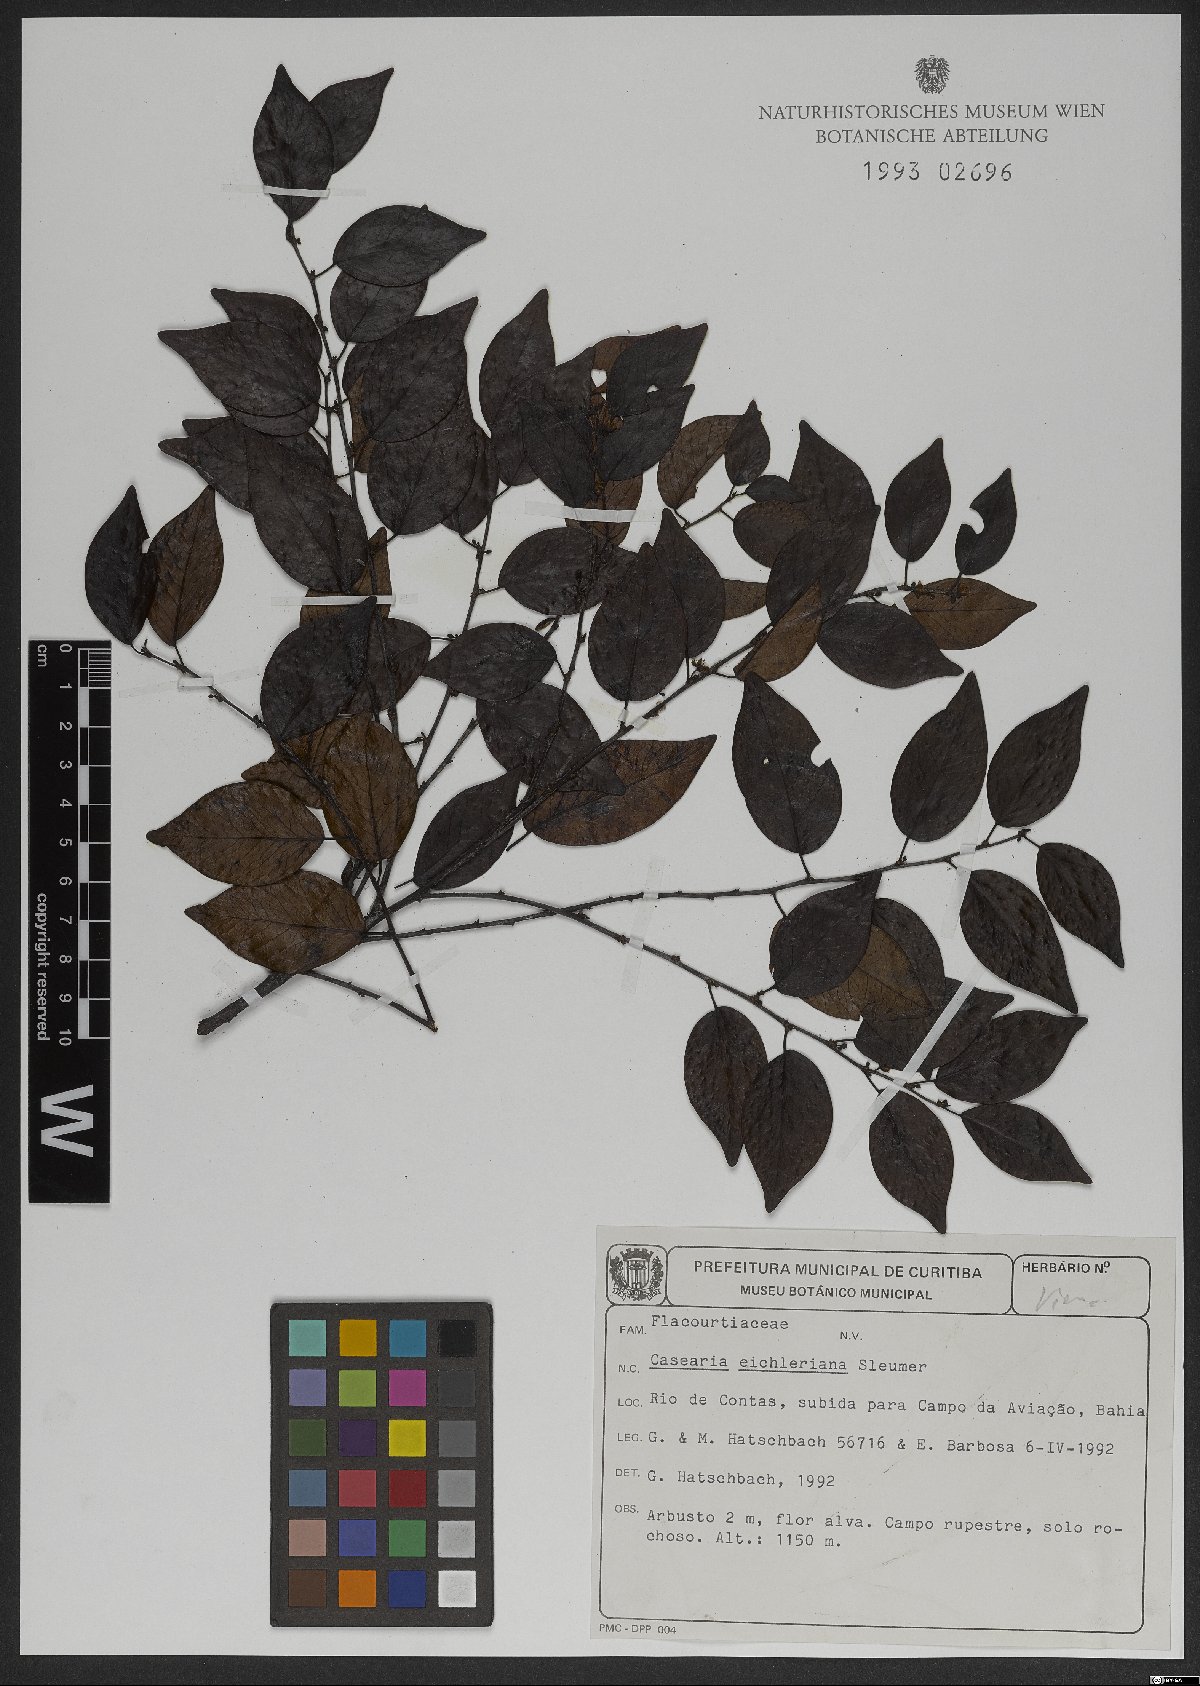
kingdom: Plantae
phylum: Tracheophyta
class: Magnoliopsida
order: Malpighiales
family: Salicaceae
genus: Casearia
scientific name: Casearia eichleriana
